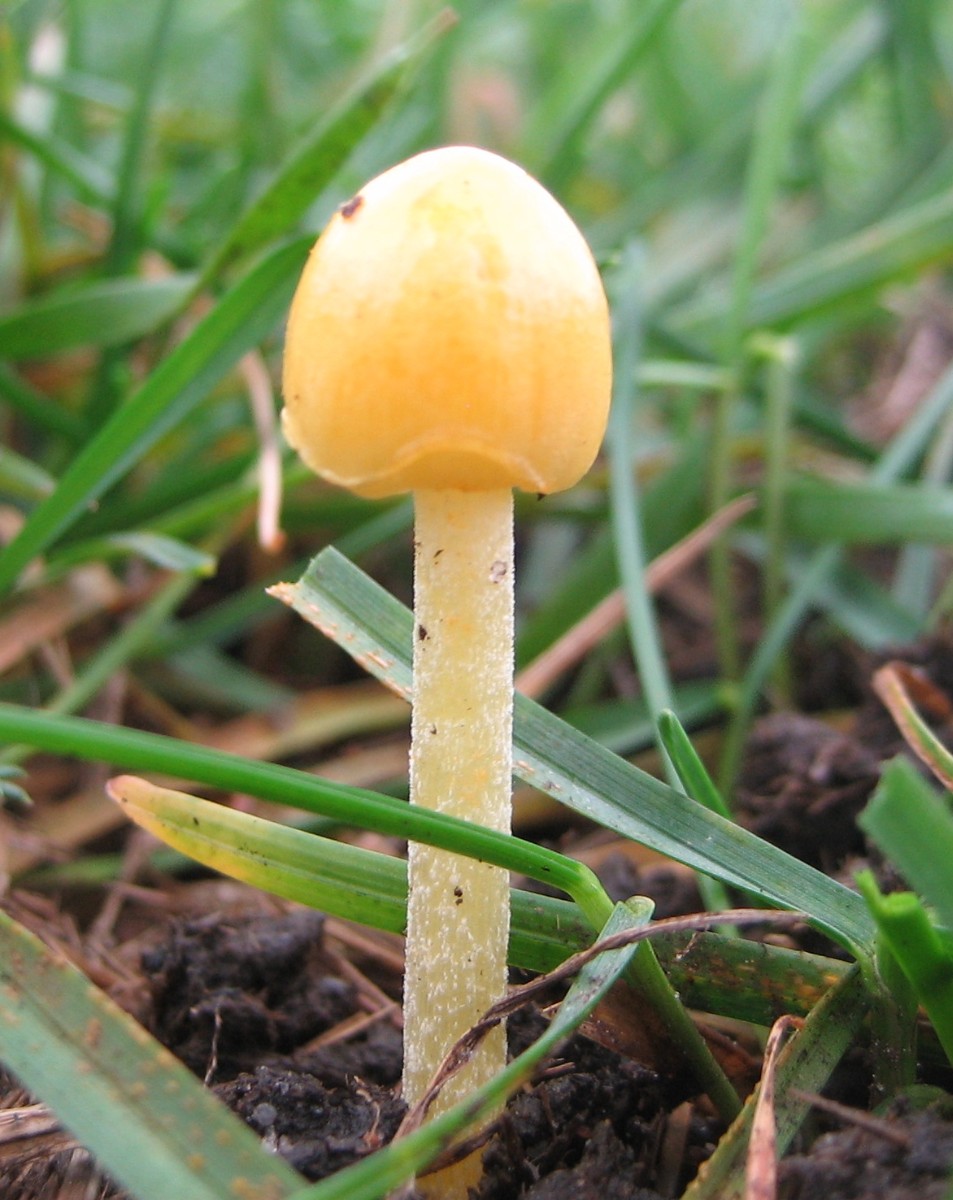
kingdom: Fungi
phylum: Basidiomycota
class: Agaricomycetes
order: Agaricales
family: Bolbitiaceae
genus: Bolbitius
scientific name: Bolbitius titubans
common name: almindelig gulhat
